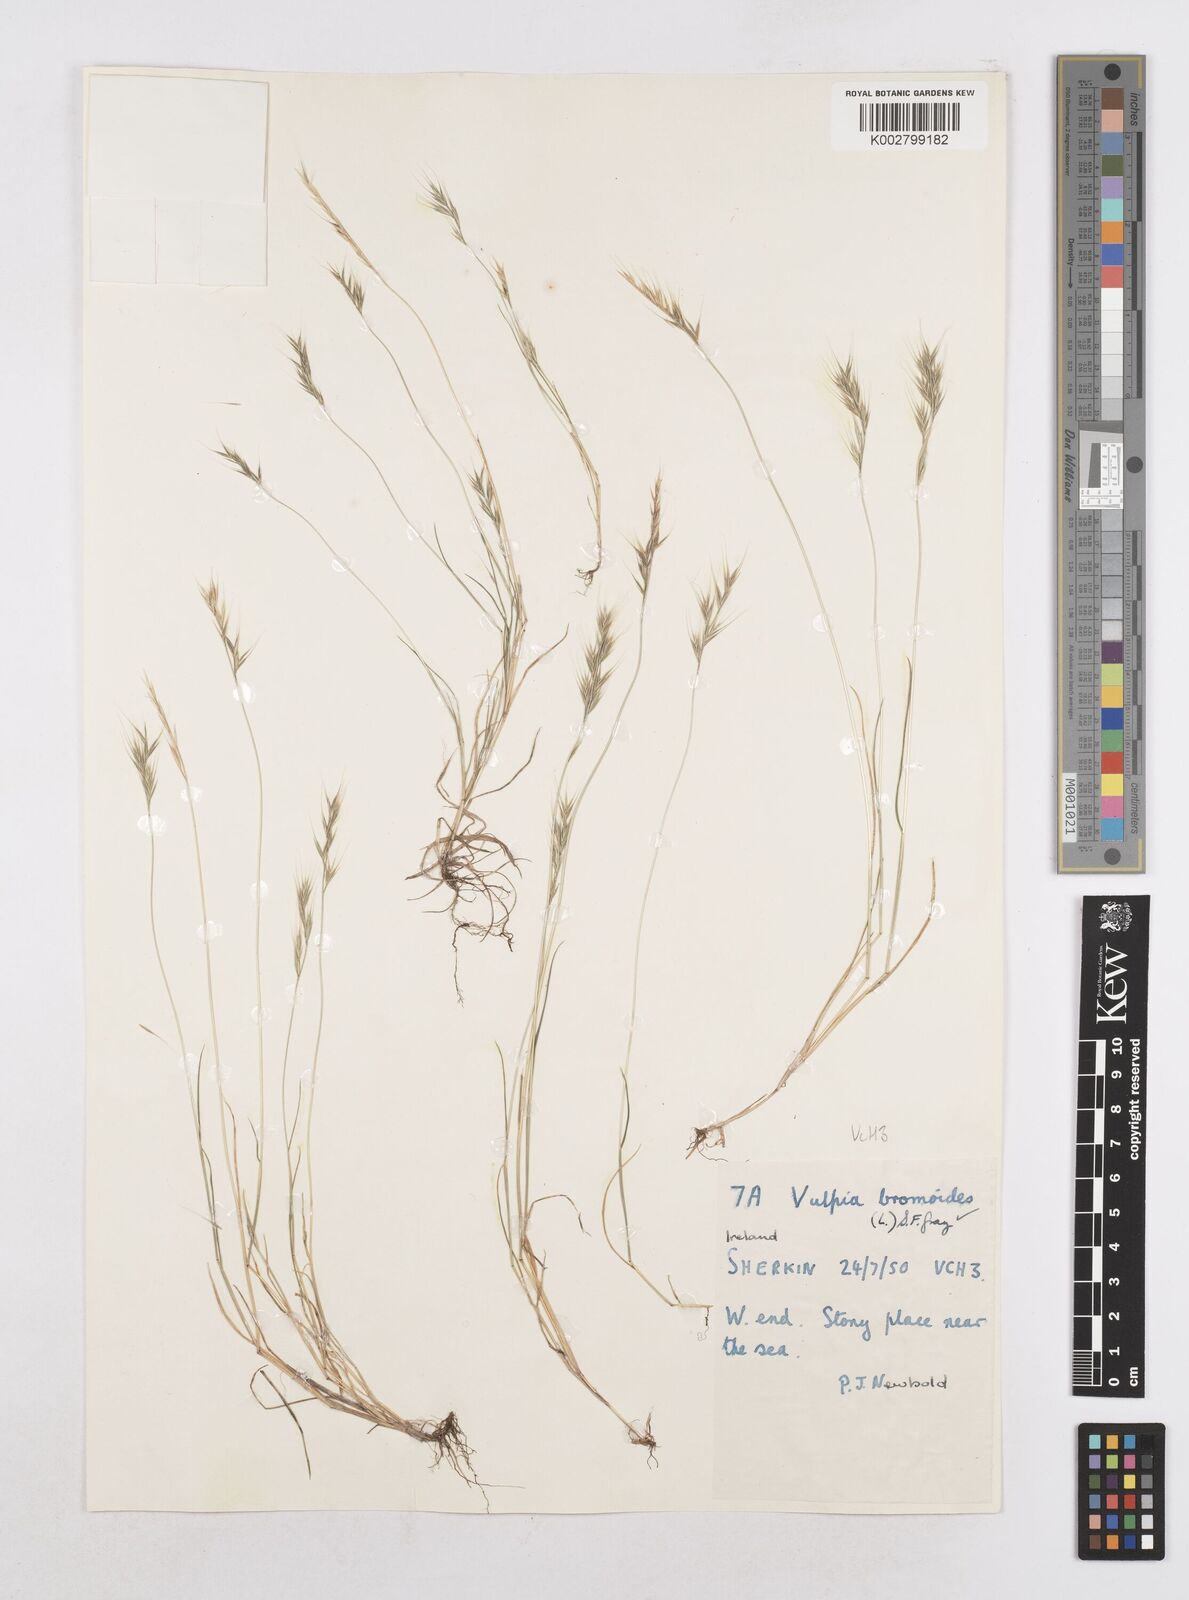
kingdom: Plantae
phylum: Tracheophyta
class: Liliopsida
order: Poales
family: Poaceae
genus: Festuca
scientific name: Festuca bromoides
